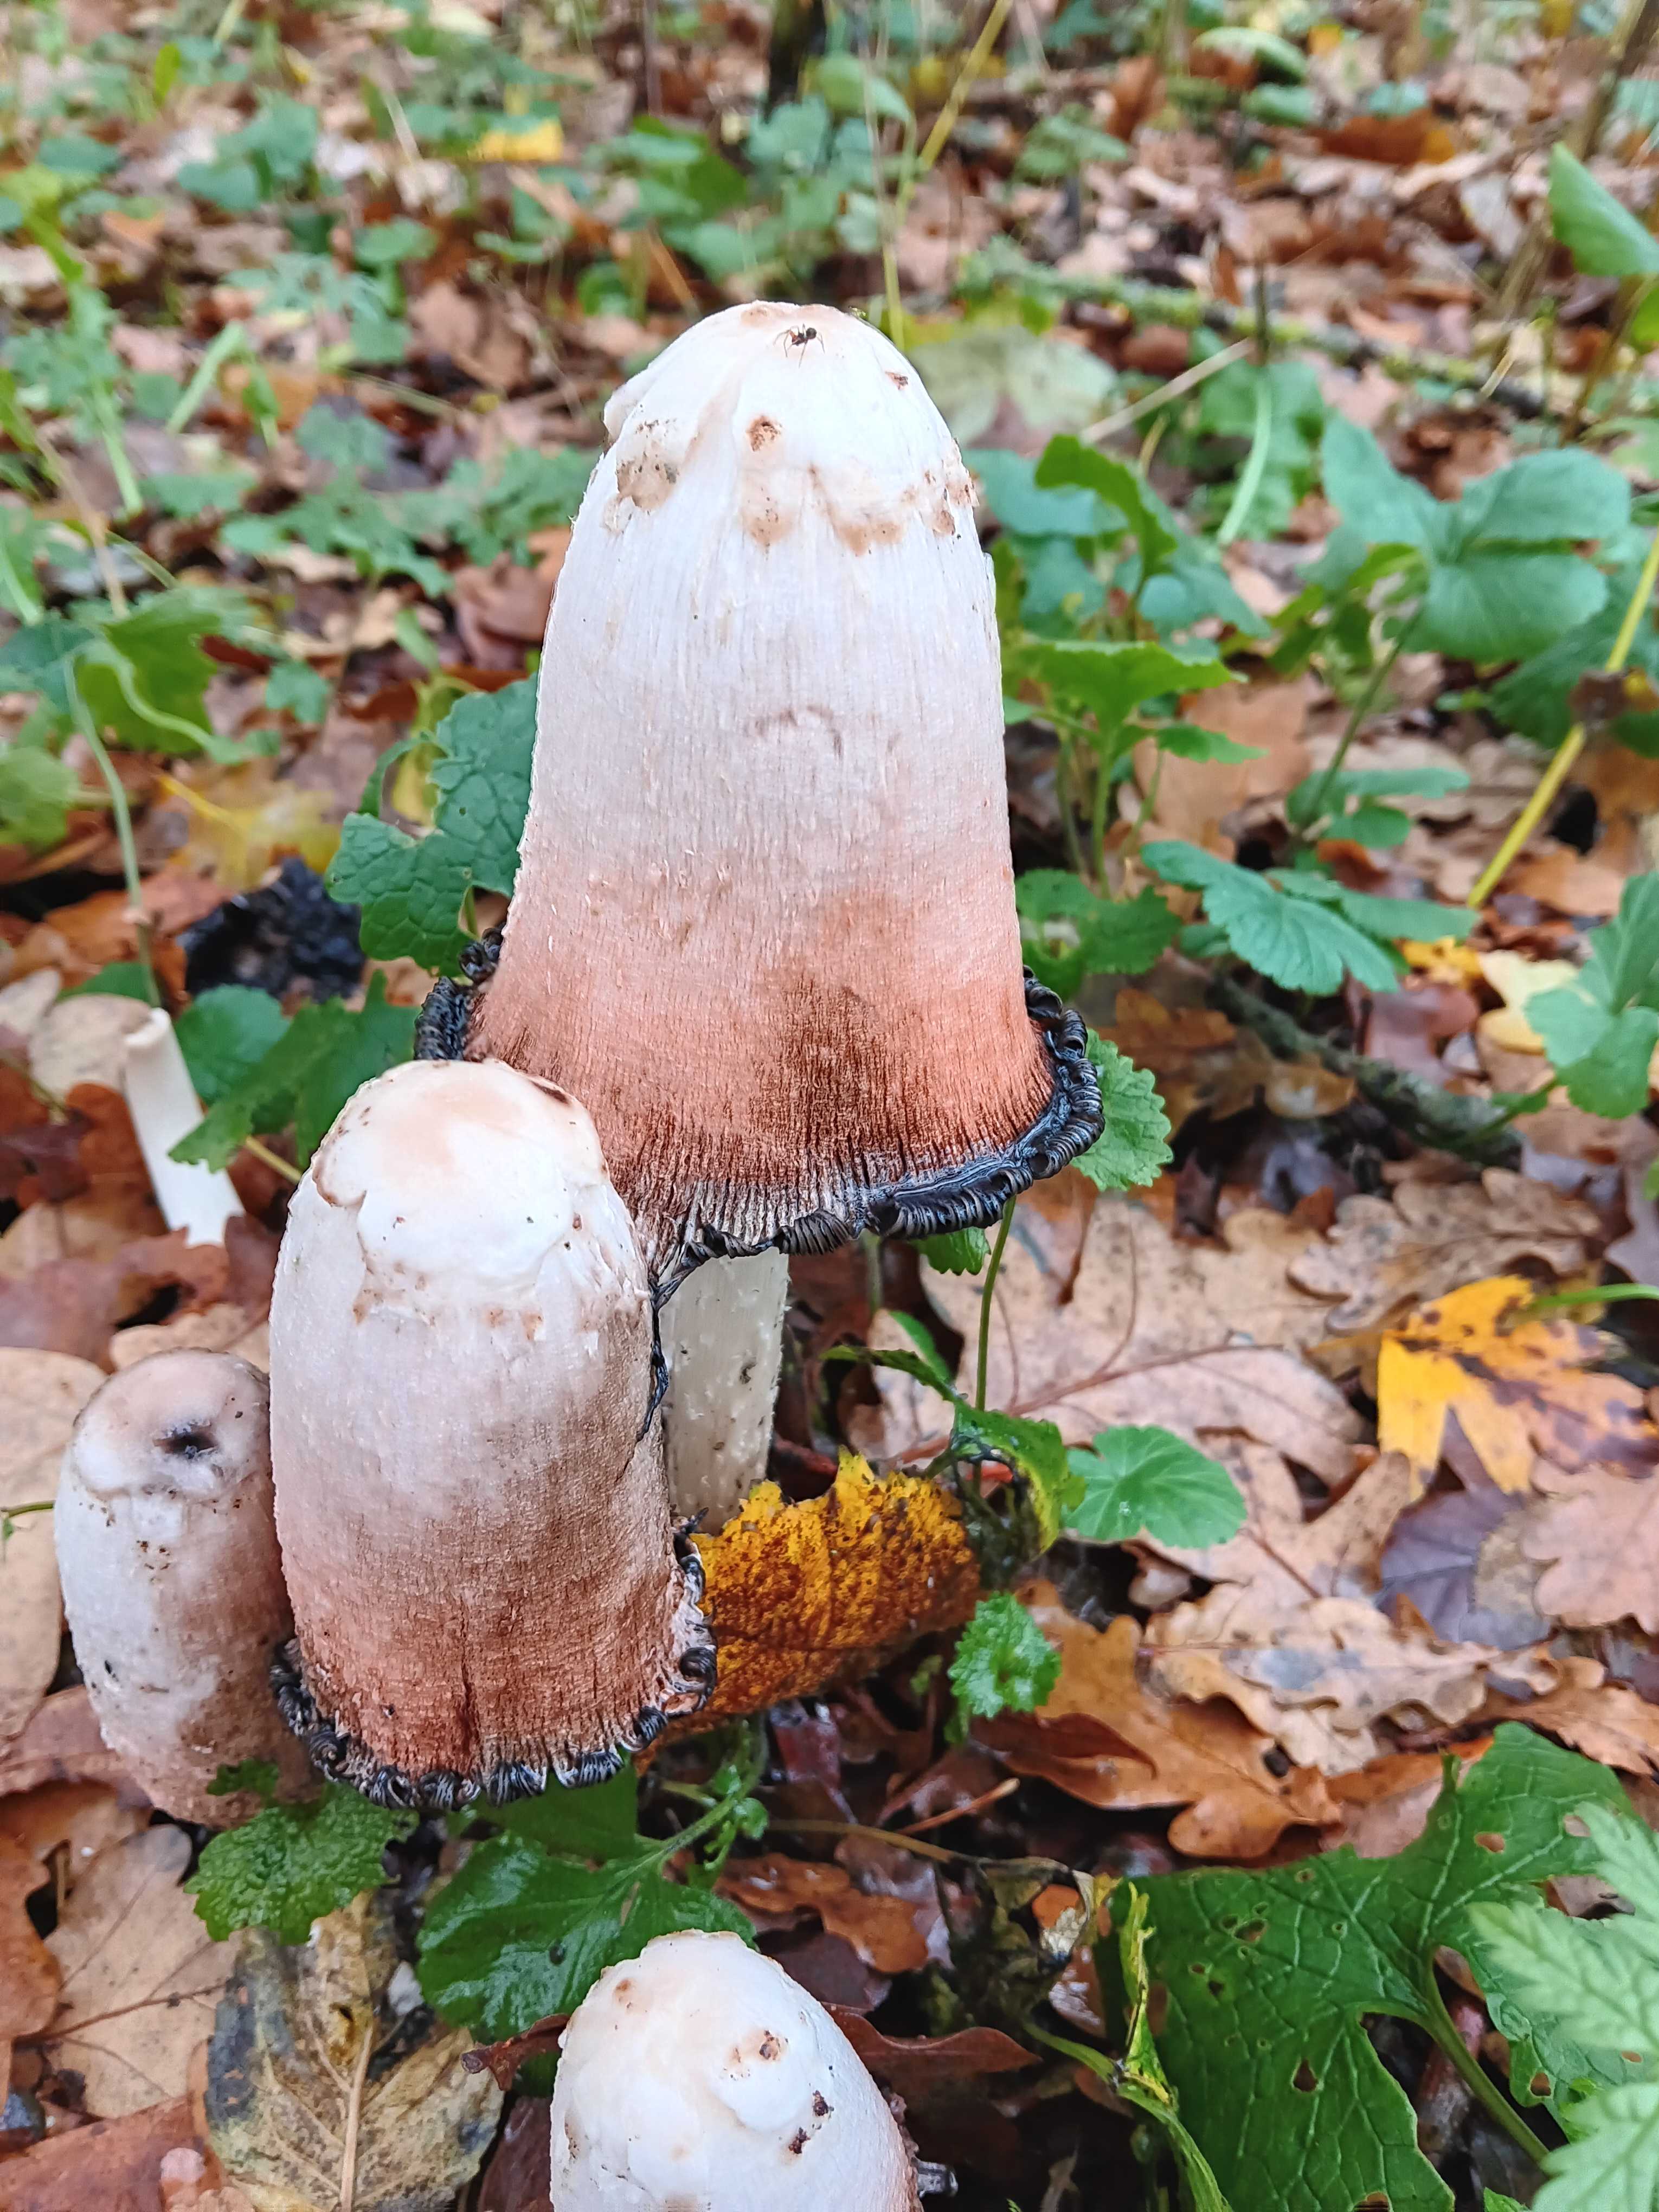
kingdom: Fungi
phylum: Basidiomycota
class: Agaricomycetes
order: Agaricales
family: Agaricaceae
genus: Coprinus
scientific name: Coprinus comatus
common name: stor parykhat
